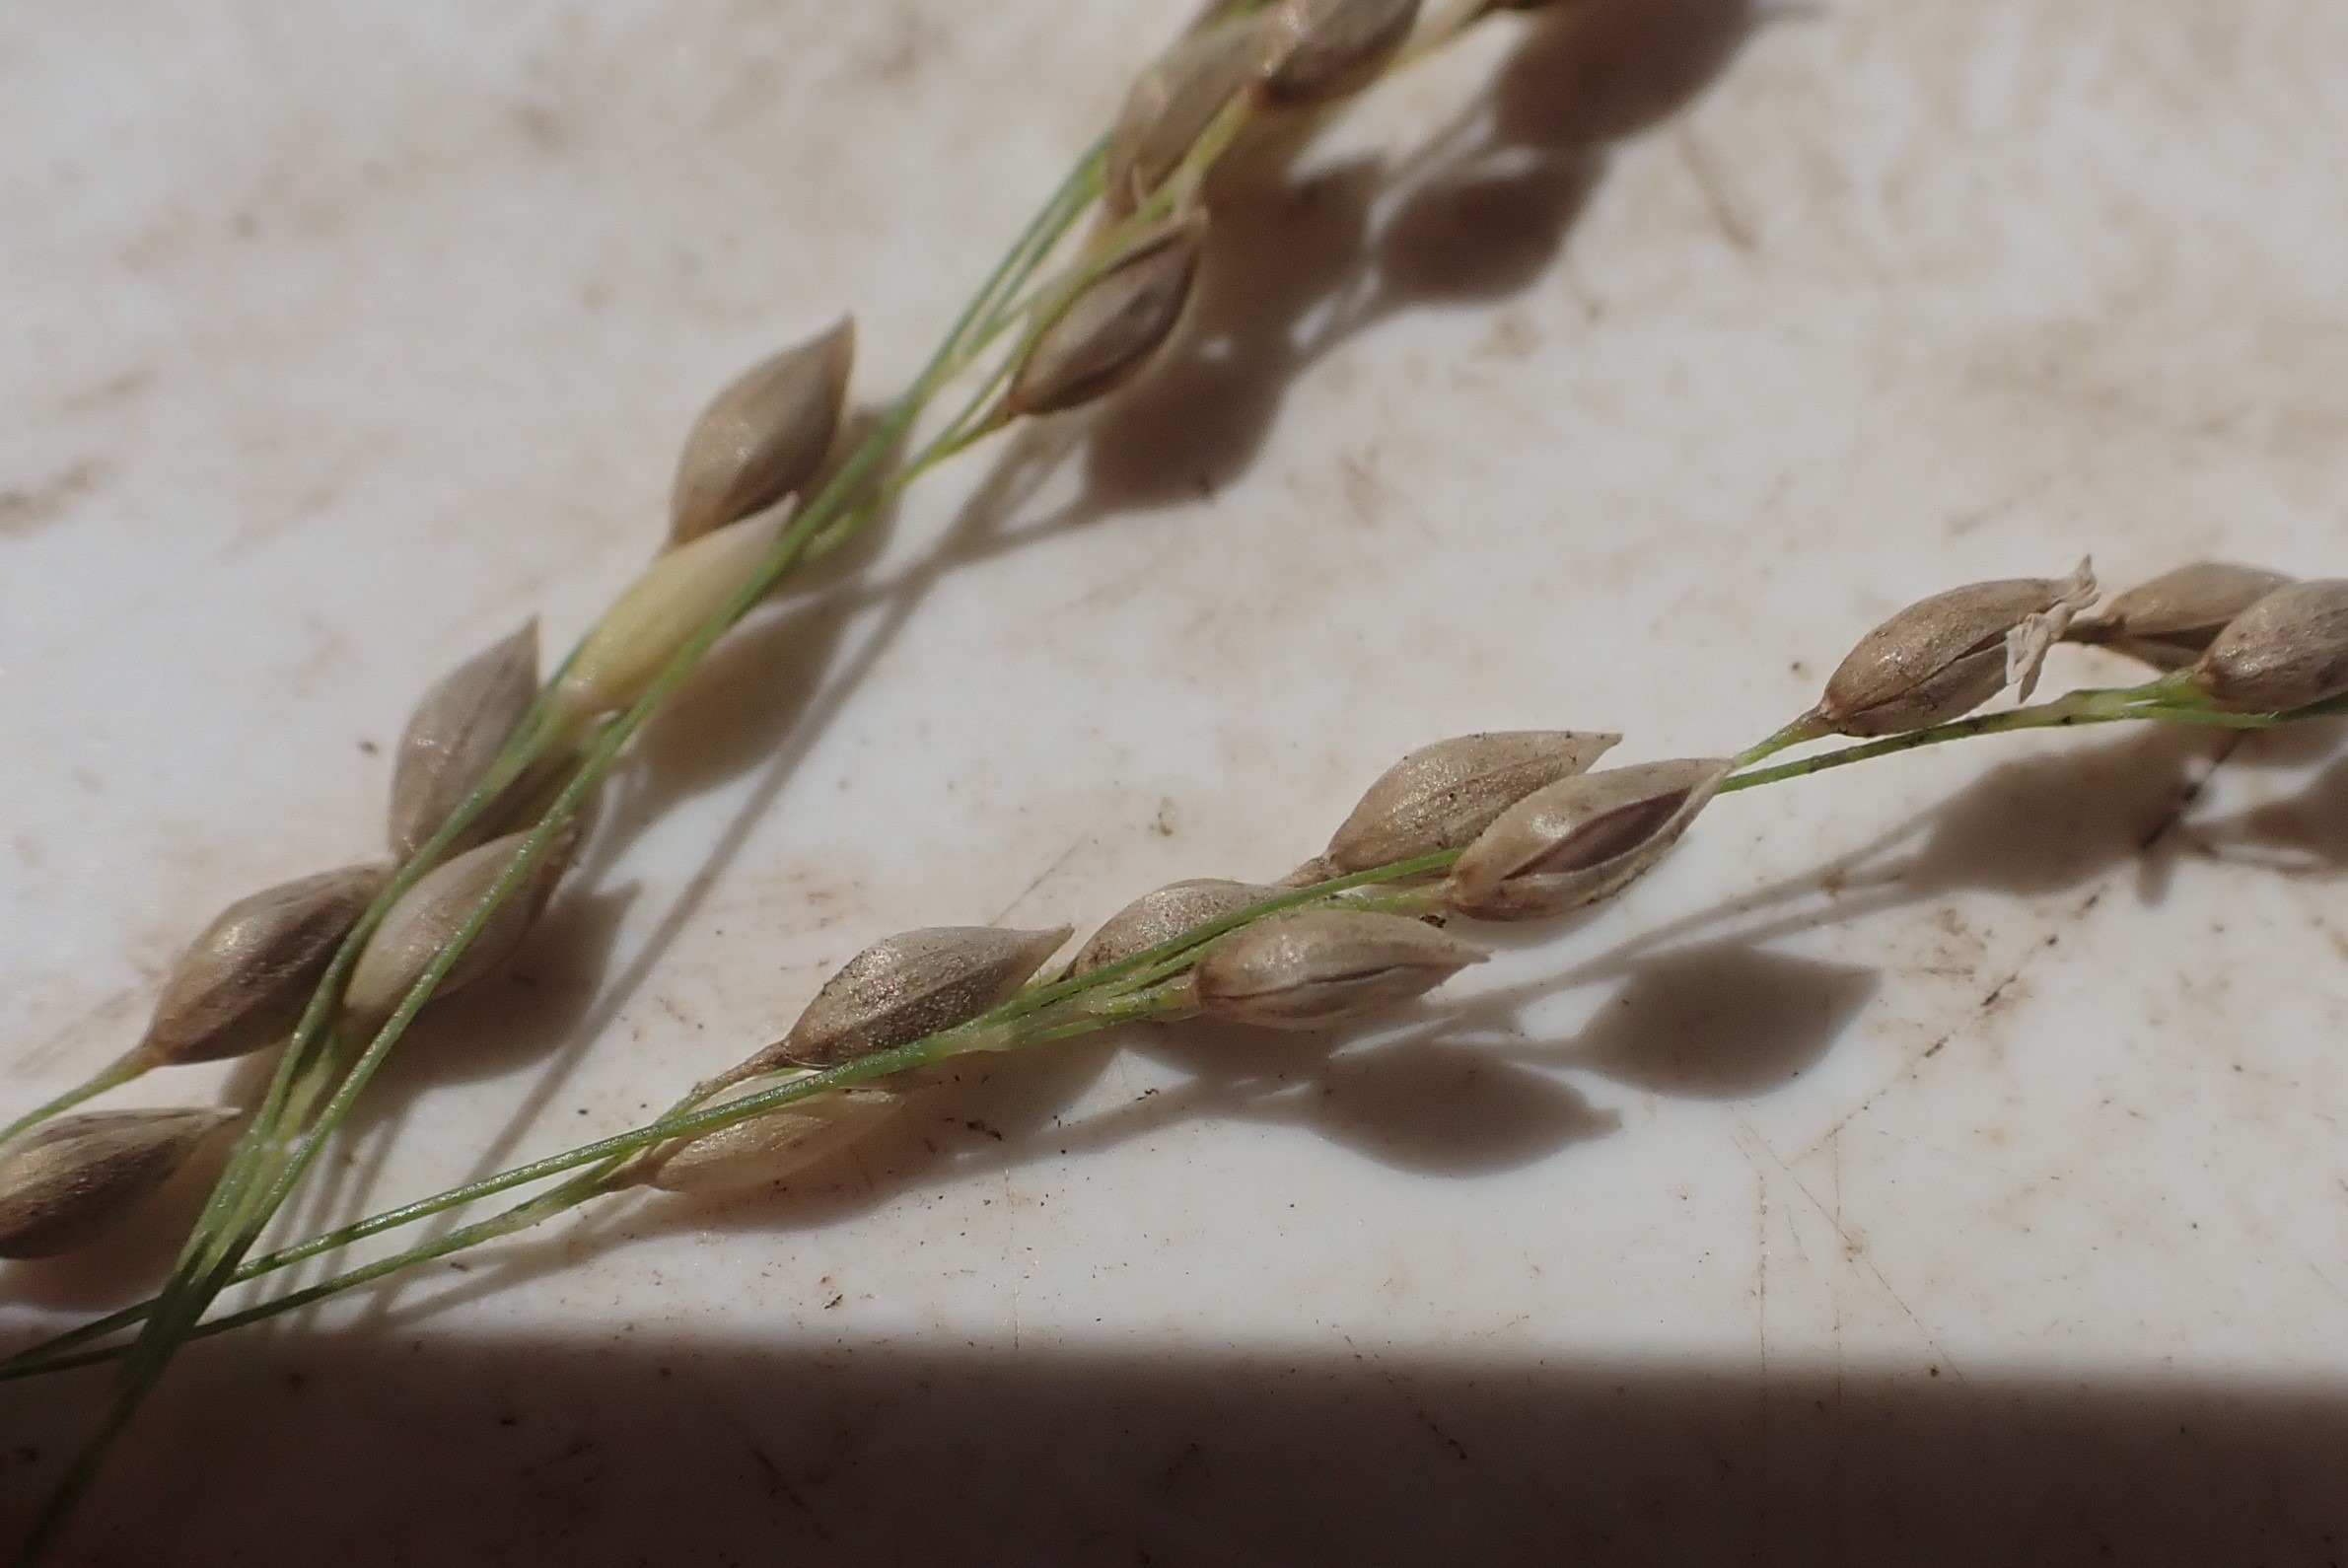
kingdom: Plantae
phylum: Tracheophyta
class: Liliopsida
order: Poales
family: Poaceae
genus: Milium
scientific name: Milium effusum
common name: Miliegræs
